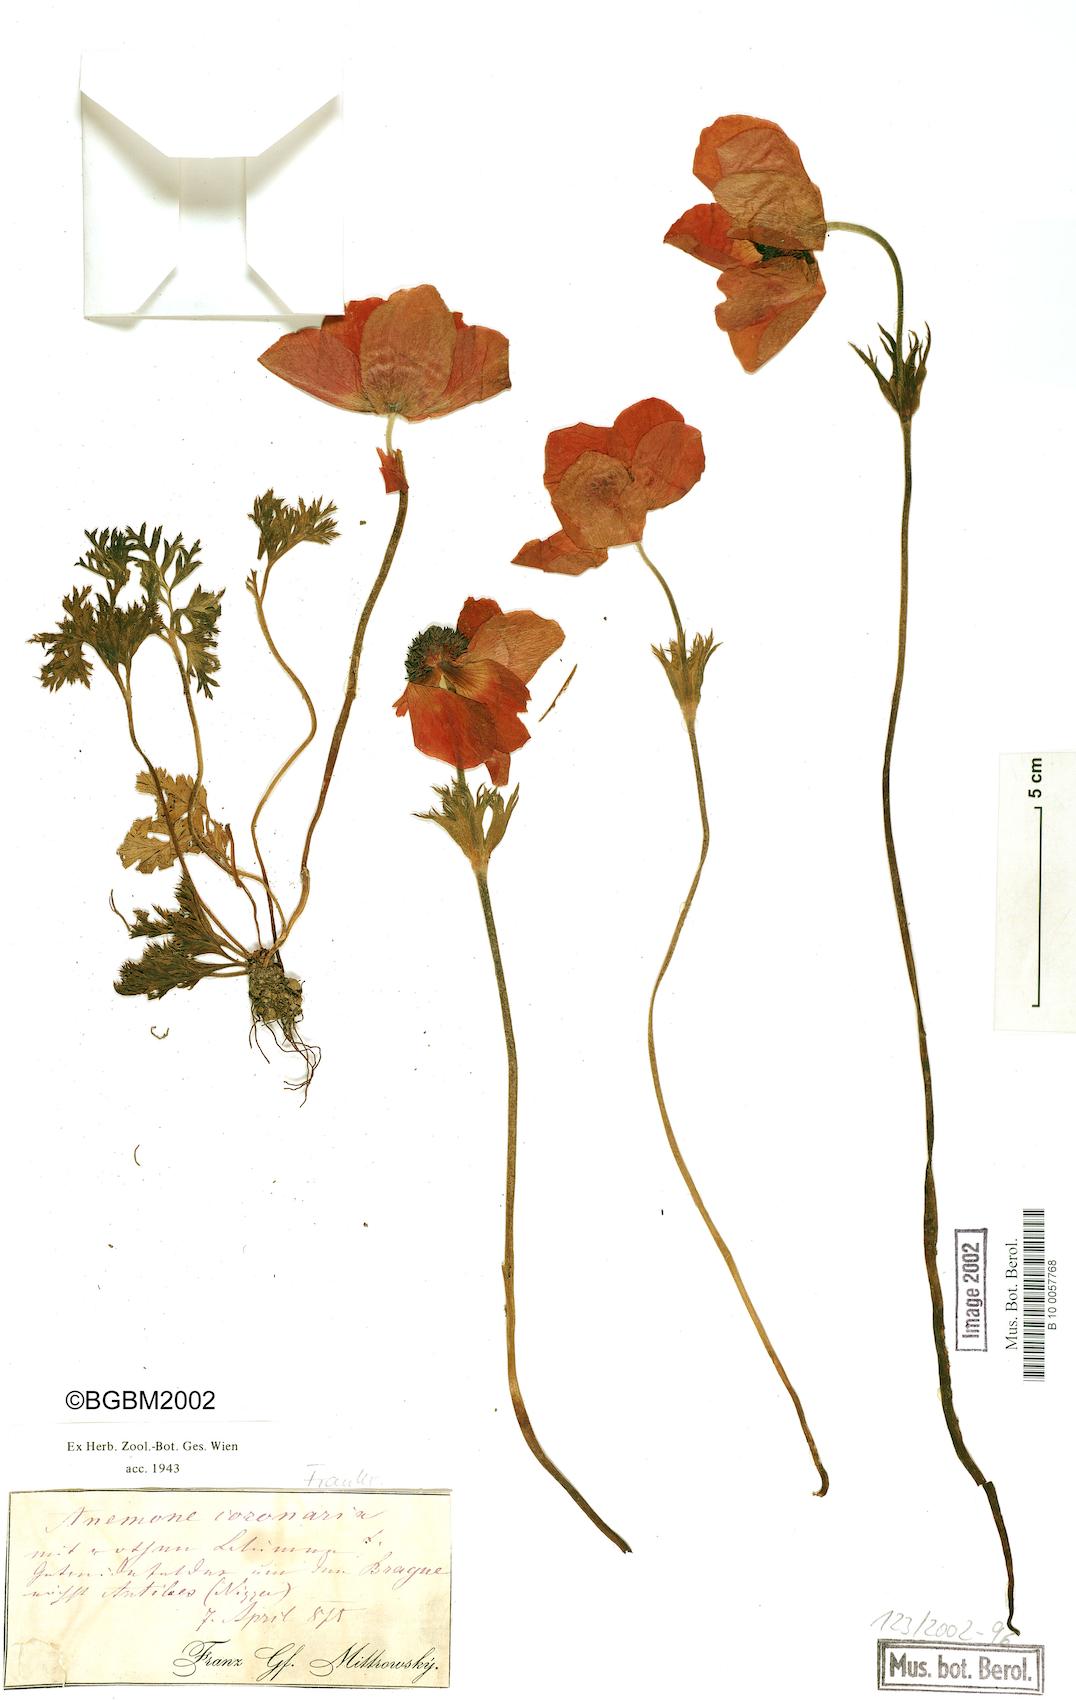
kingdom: Plantae
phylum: Tracheophyta
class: Magnoliopsida
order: Ranunculales
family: Ranunculaceae
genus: Anemone
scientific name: Anemone coronaria
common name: Poppy anemone
